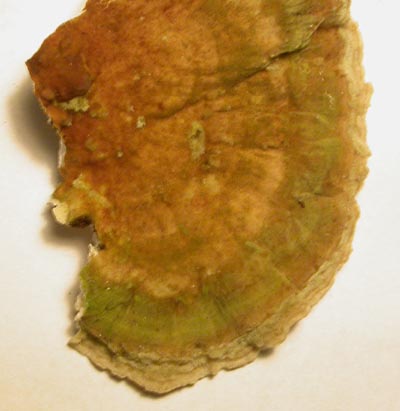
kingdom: Fungi
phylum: Basidiomycota
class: Agaricomycetes
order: Polyporales
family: Polyporaceae
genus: Trametes
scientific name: Trametes versicolor
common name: broget læderporesvamp
